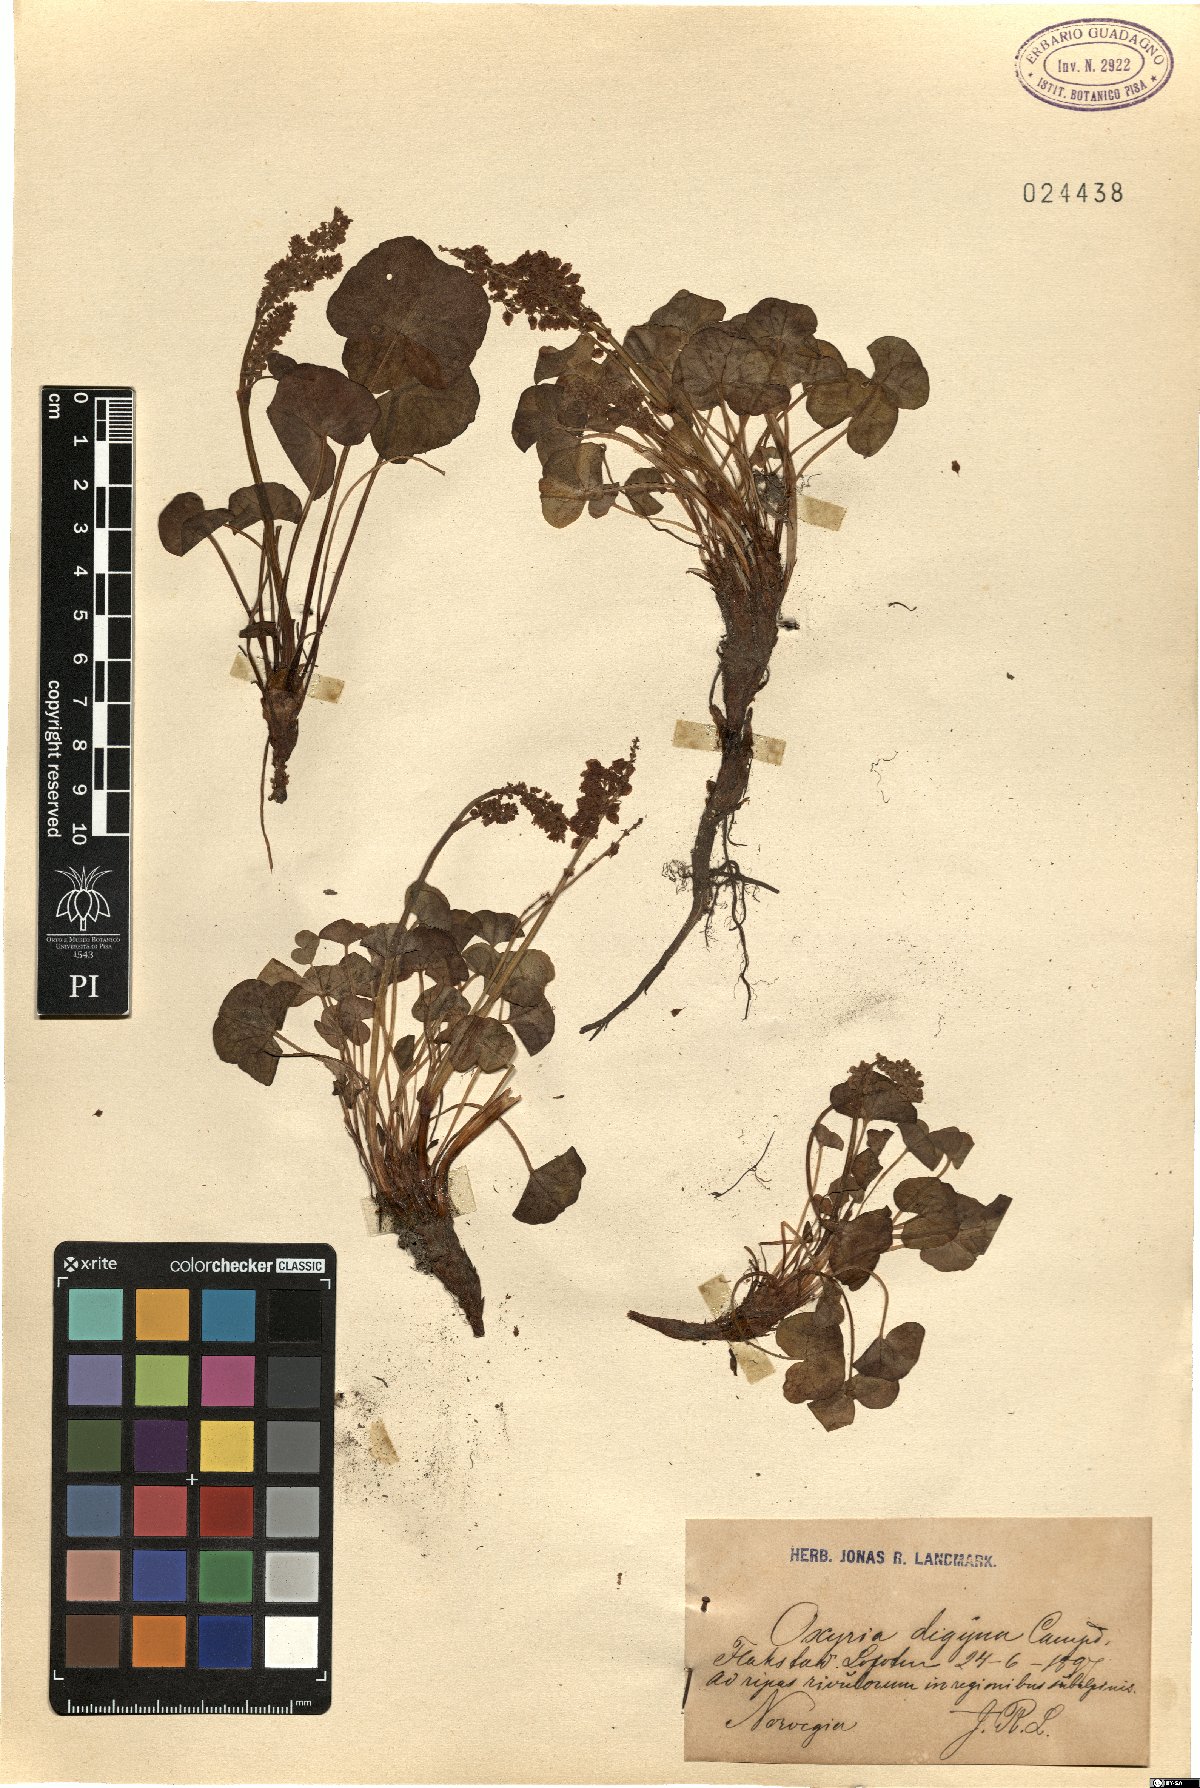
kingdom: Plantae
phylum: Tracheophyta
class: Magnoliopsida
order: Caryophyllales
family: Polygonaceae
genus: Oxyria
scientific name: Oxyria digyna
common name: Alpine mountain-sorrel
